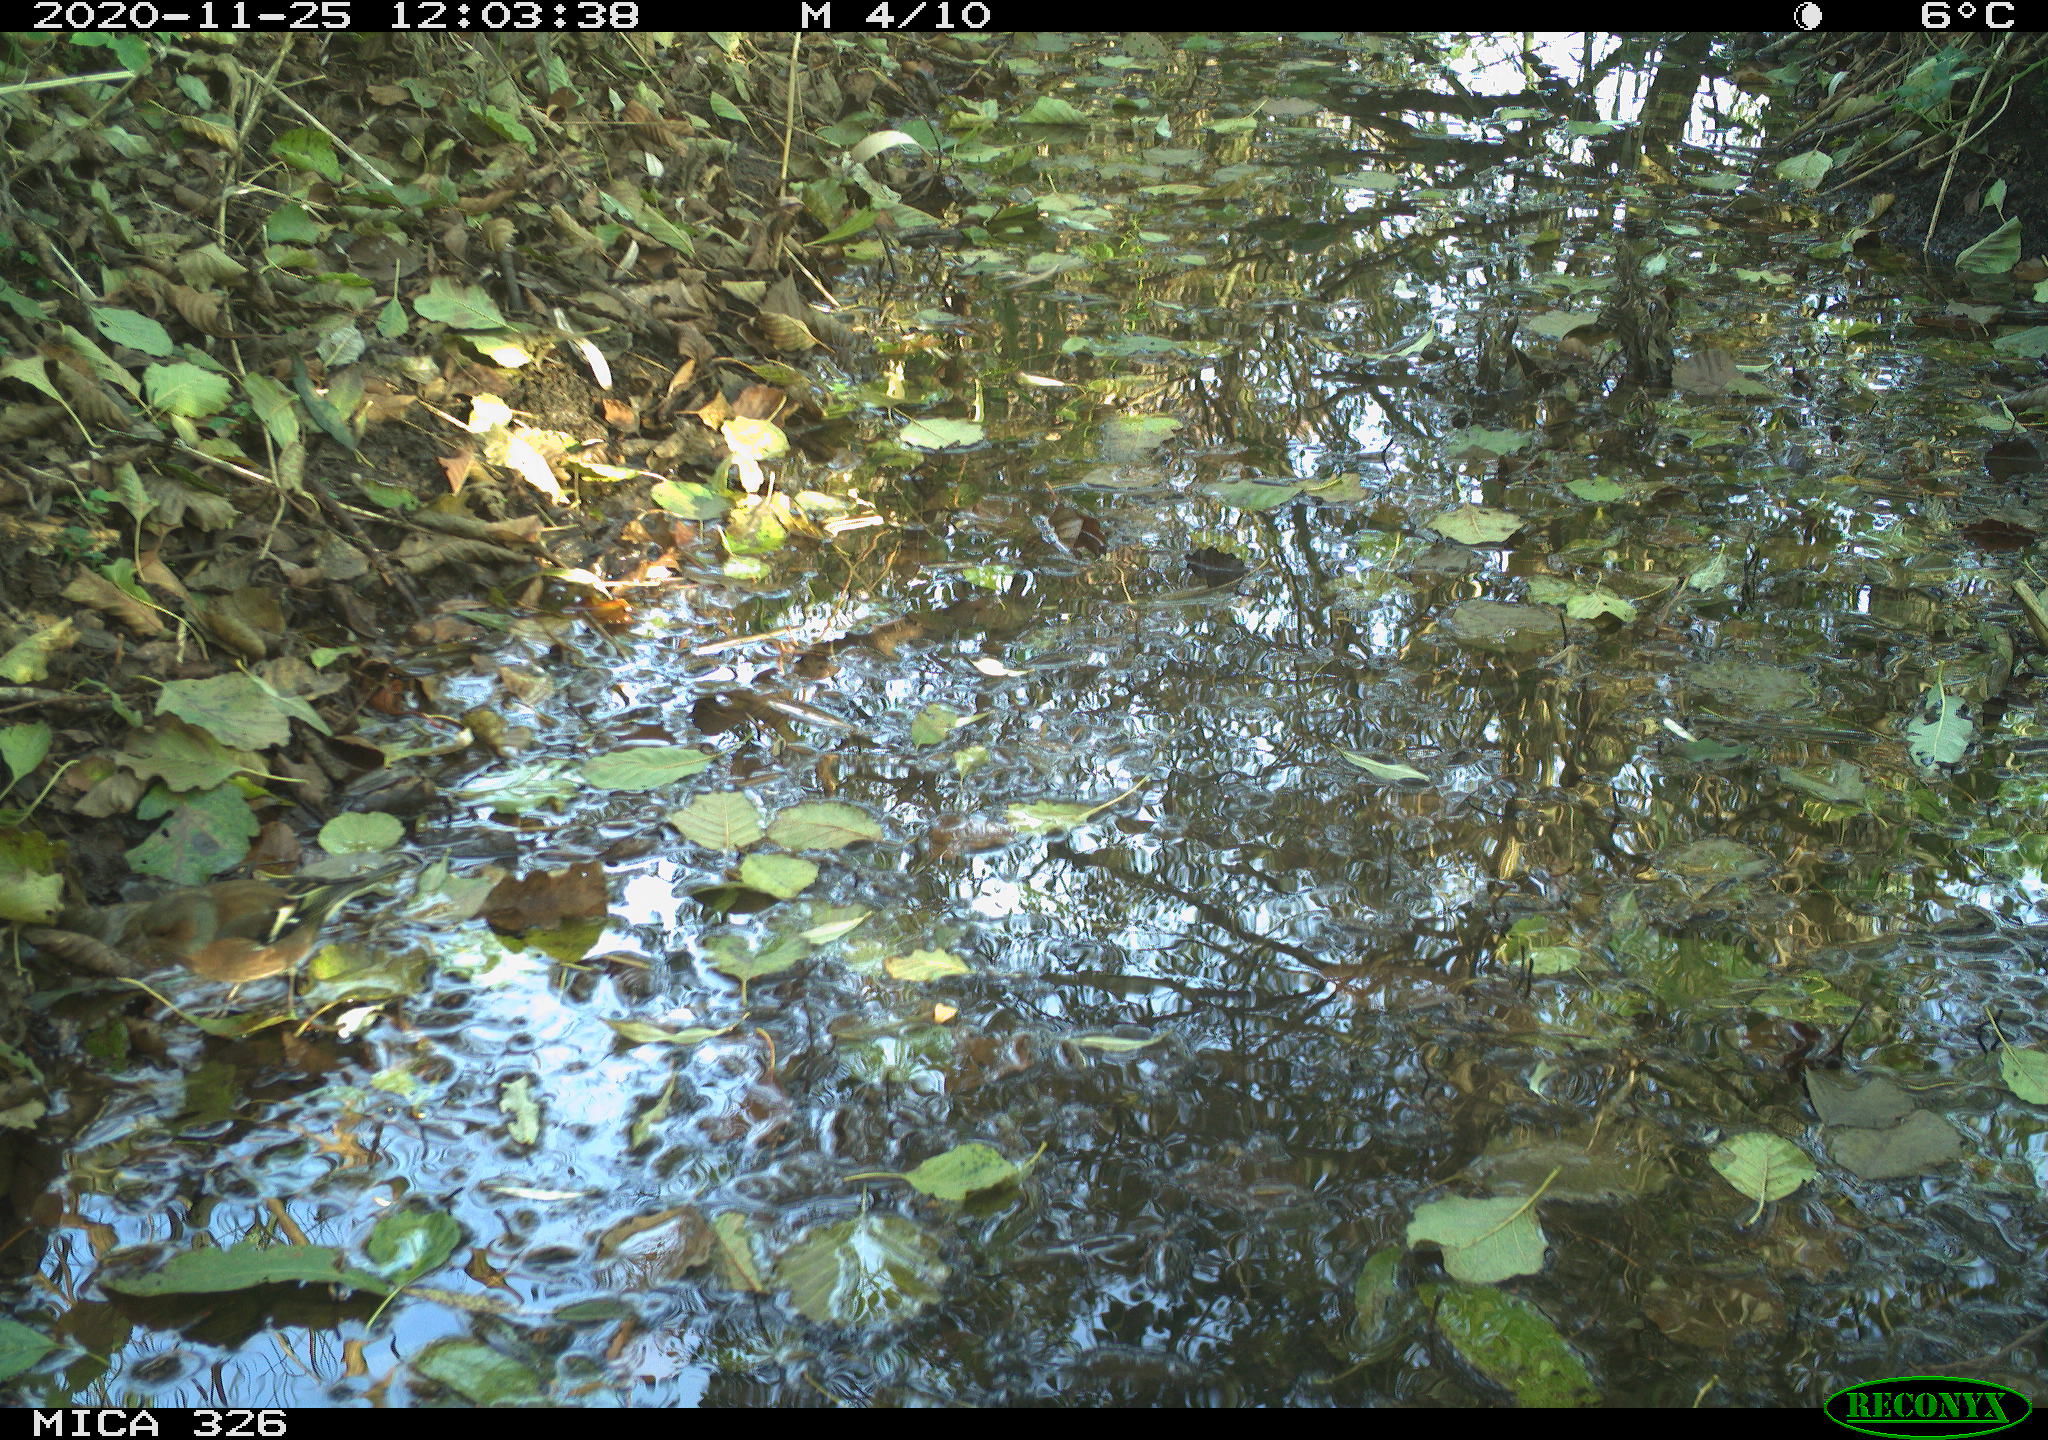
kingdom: Animalia
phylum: Chordata
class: Aves
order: Passeriformes
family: Fringillidae
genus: Fringilla
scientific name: Fringilla coelebs
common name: Common chaffinch
